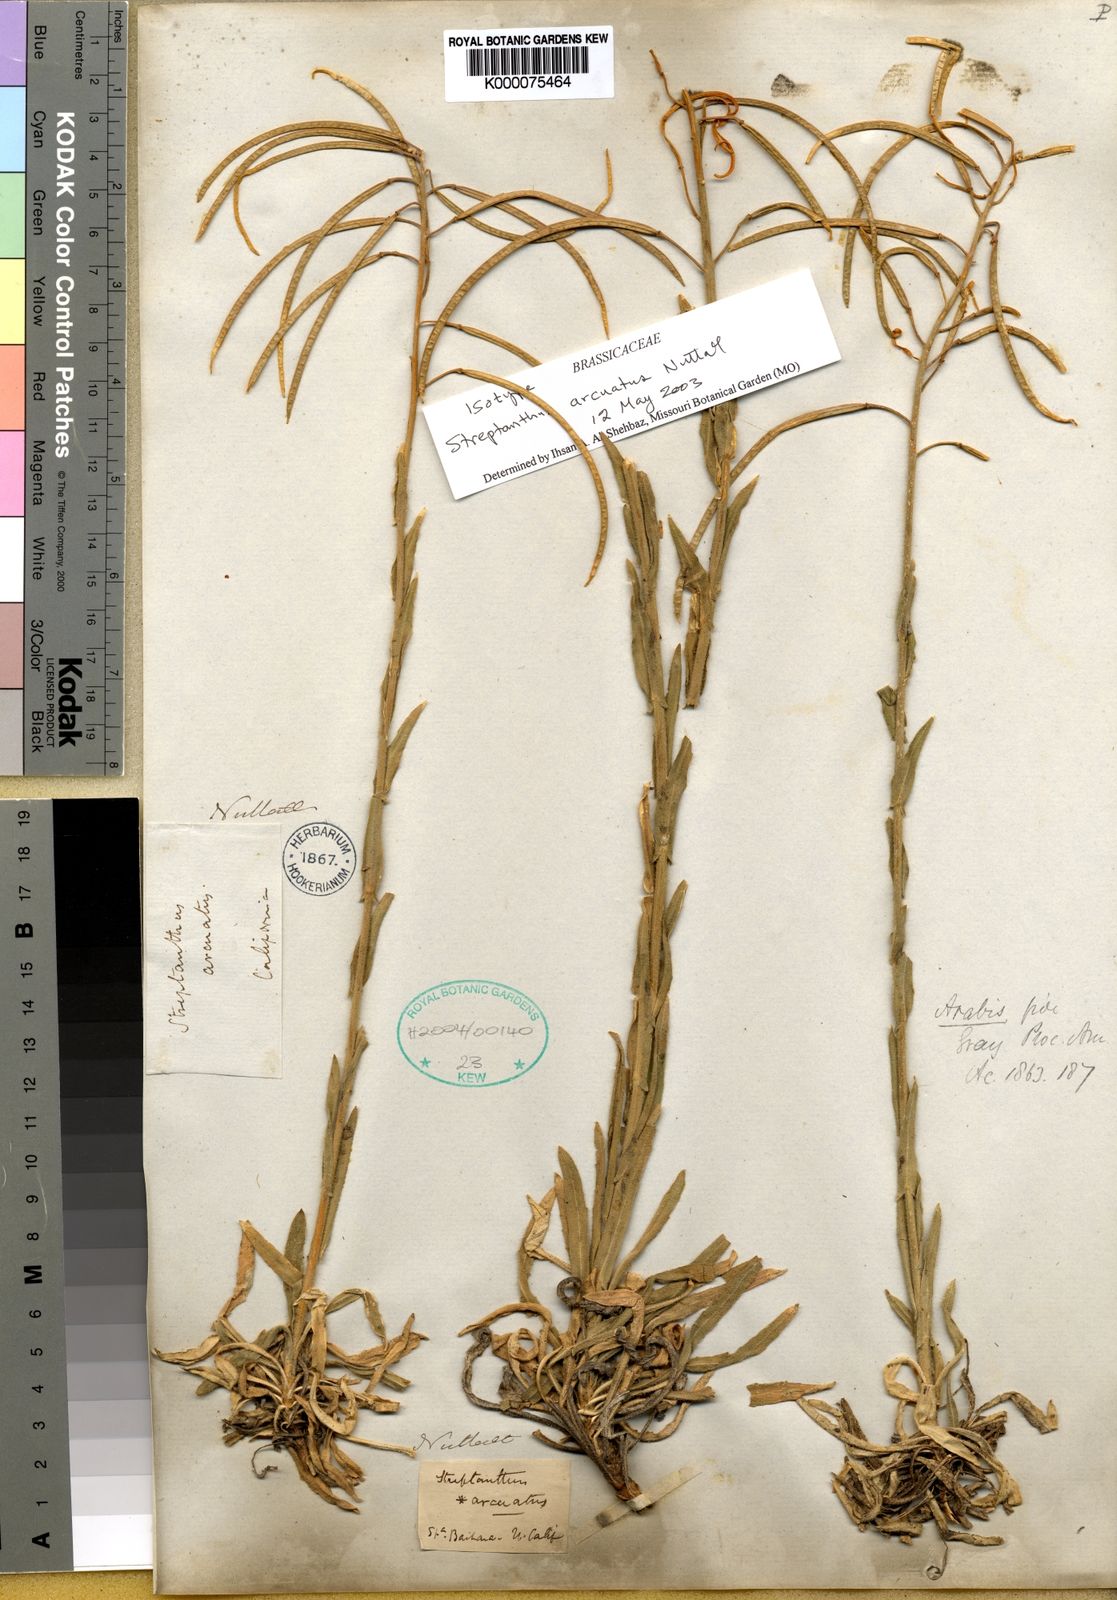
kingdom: Plantae
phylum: Tracheophyta
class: Magnoliopsida
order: Brassicales
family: Brassicaceae
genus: Boechera
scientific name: Boechera arcuata
